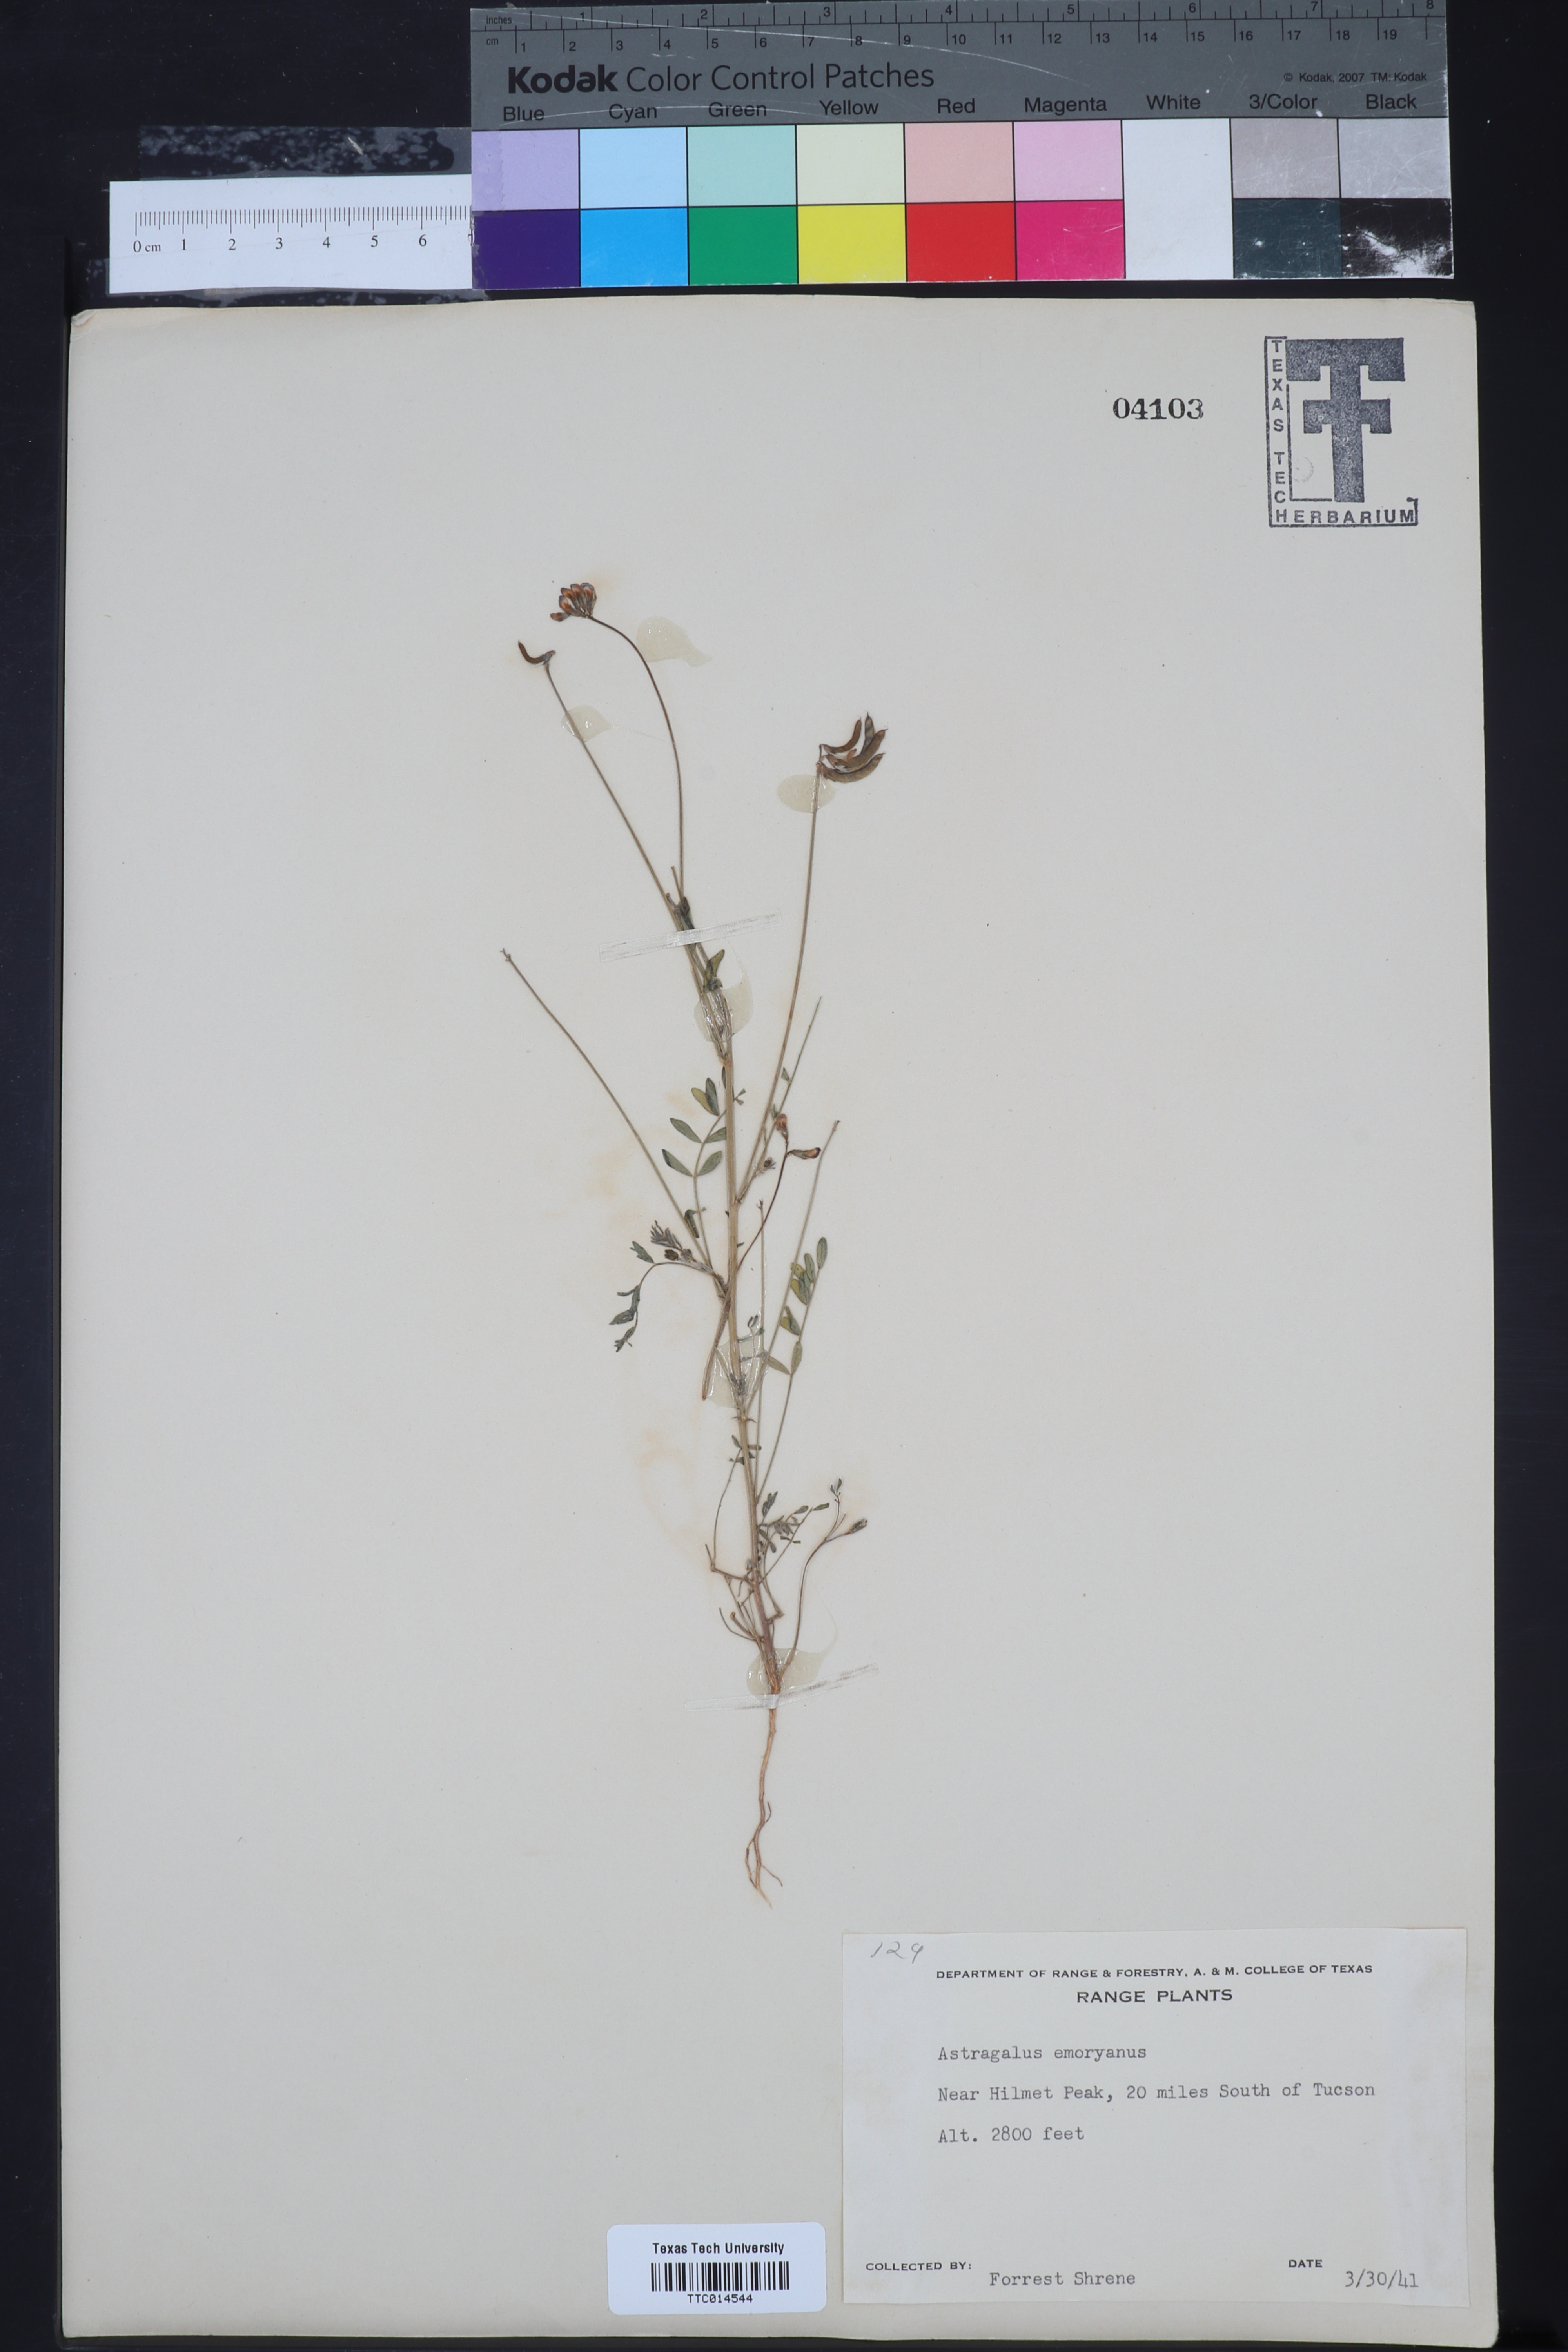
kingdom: Plantae
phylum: Tracheophyta
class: Magnoliopsida
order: Fabales
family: Fabaceae
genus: Astragalus
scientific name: Astragalus emoryanus
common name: Emory's milk-vetch
